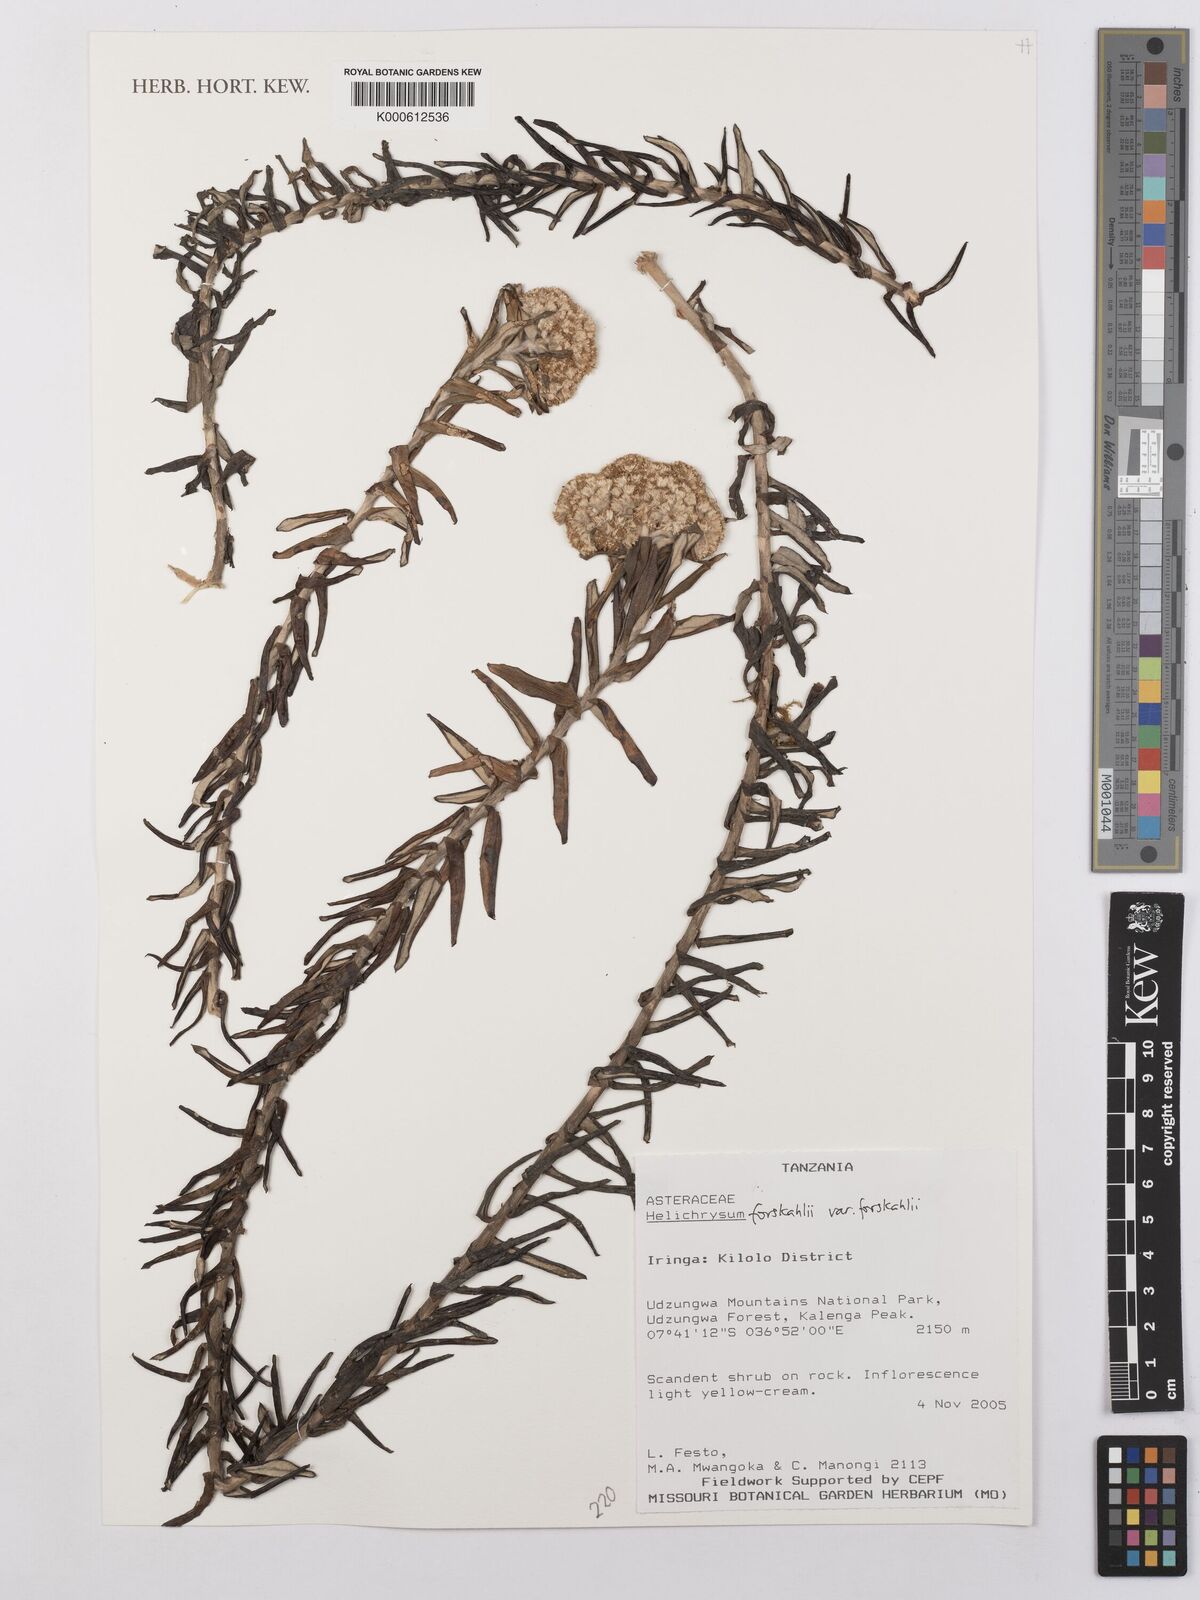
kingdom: Plantae
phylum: Tracheophyta
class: Magnoliopsida
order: Asterales
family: Asteraceae
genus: Hypericophyllum
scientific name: Hypericophyllum
